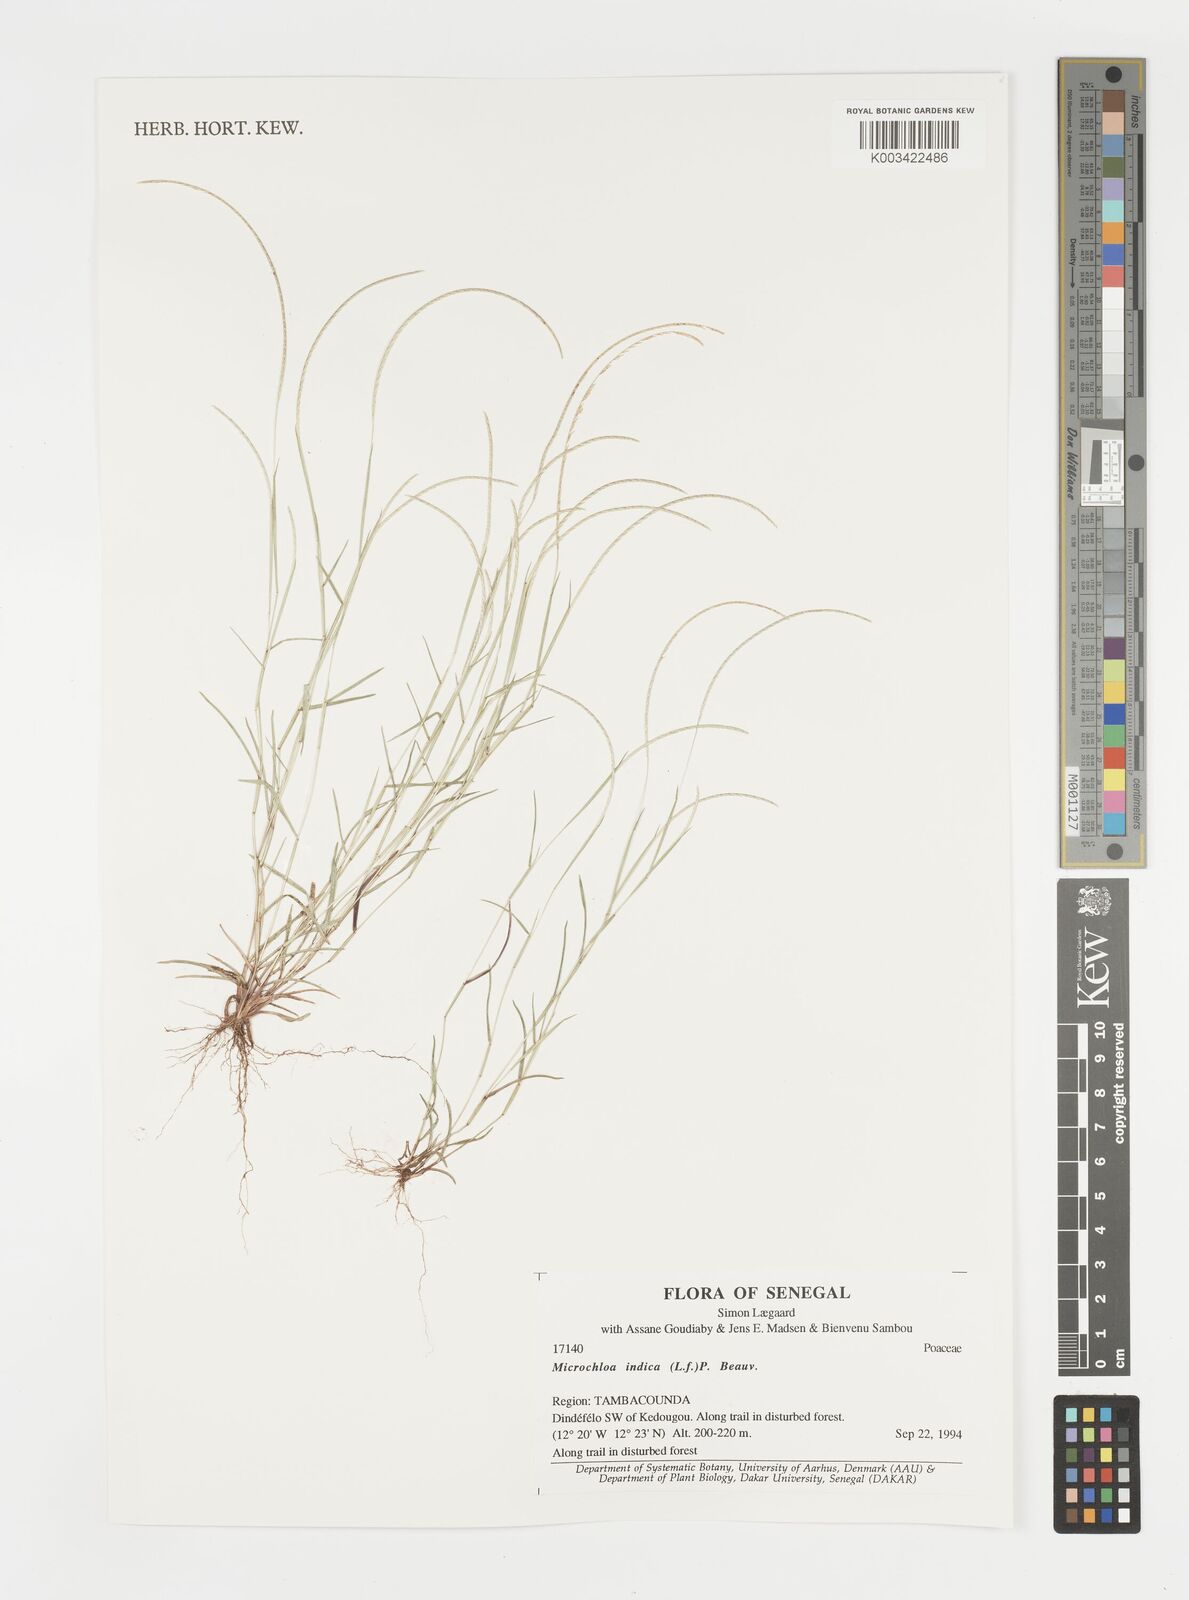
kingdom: Plantae
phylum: Tracheophyta
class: Liliopsida
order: Poales
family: Poaceae
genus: Microchloa
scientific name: Microchloa indica
